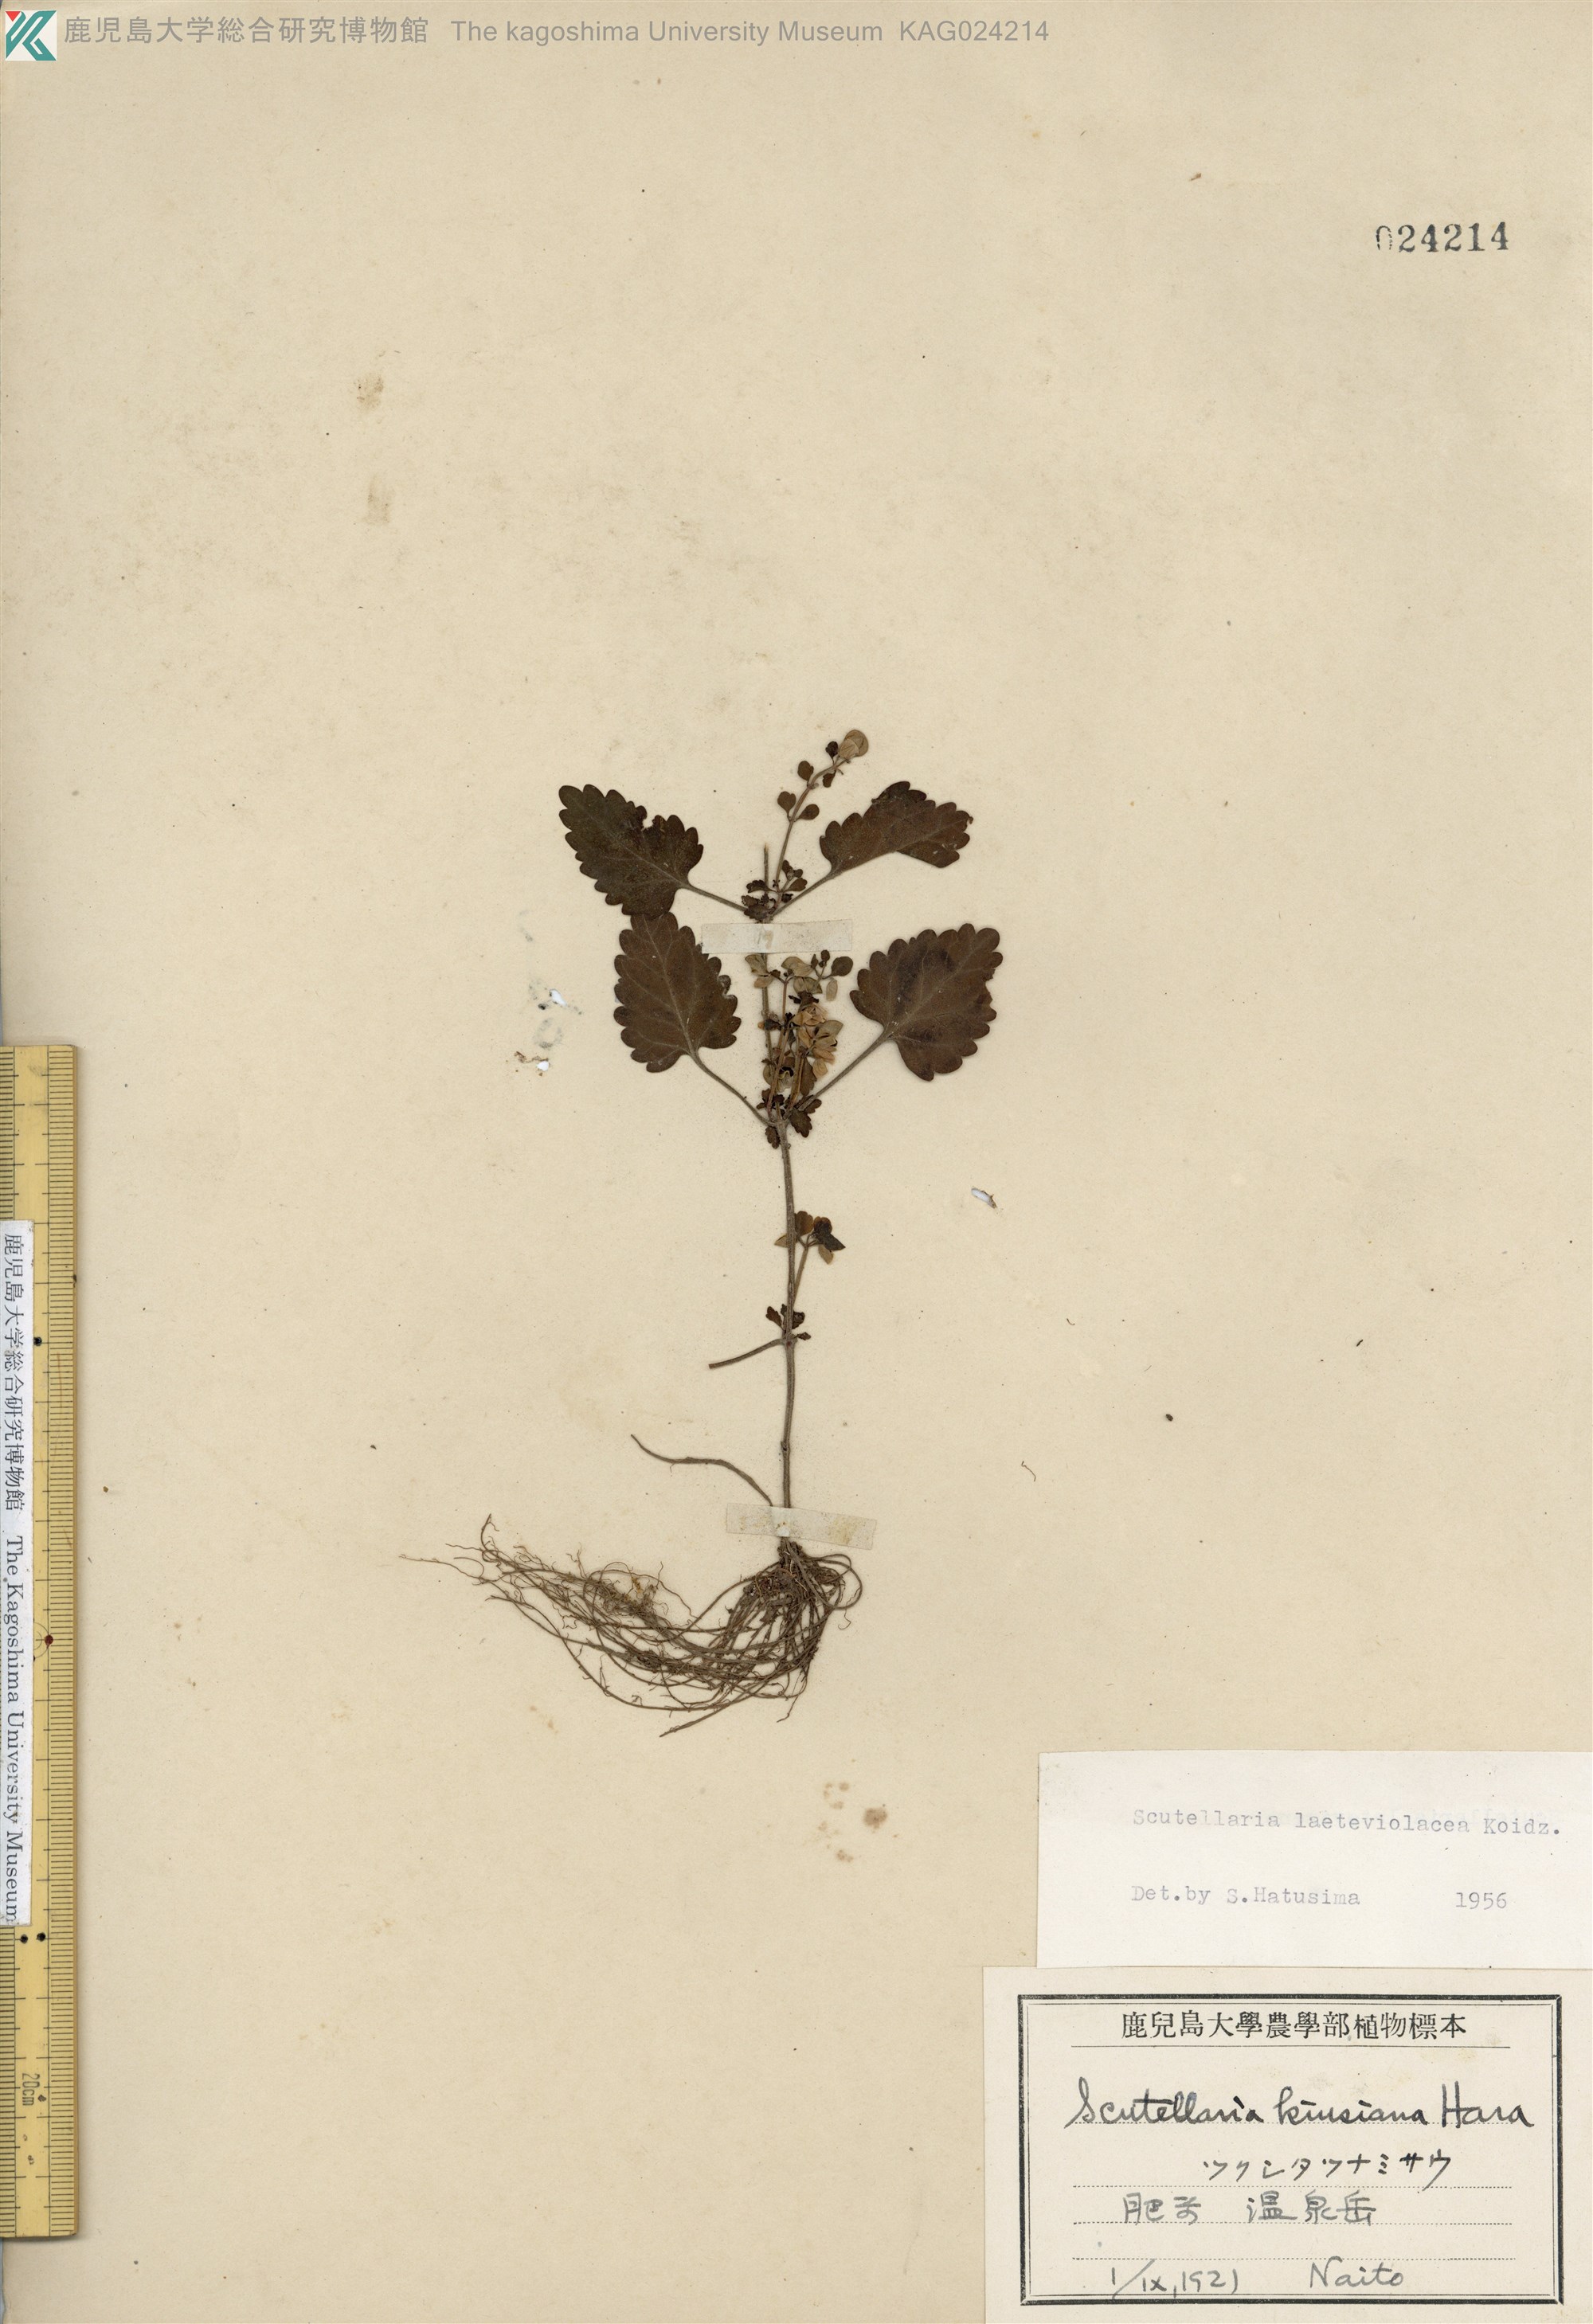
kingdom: Plantae
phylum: Tracheophyta
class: Magnoliopsida
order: Lamiales
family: Lamiaceae
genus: Scutellaria
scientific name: Scutellaria laeteviolacea
